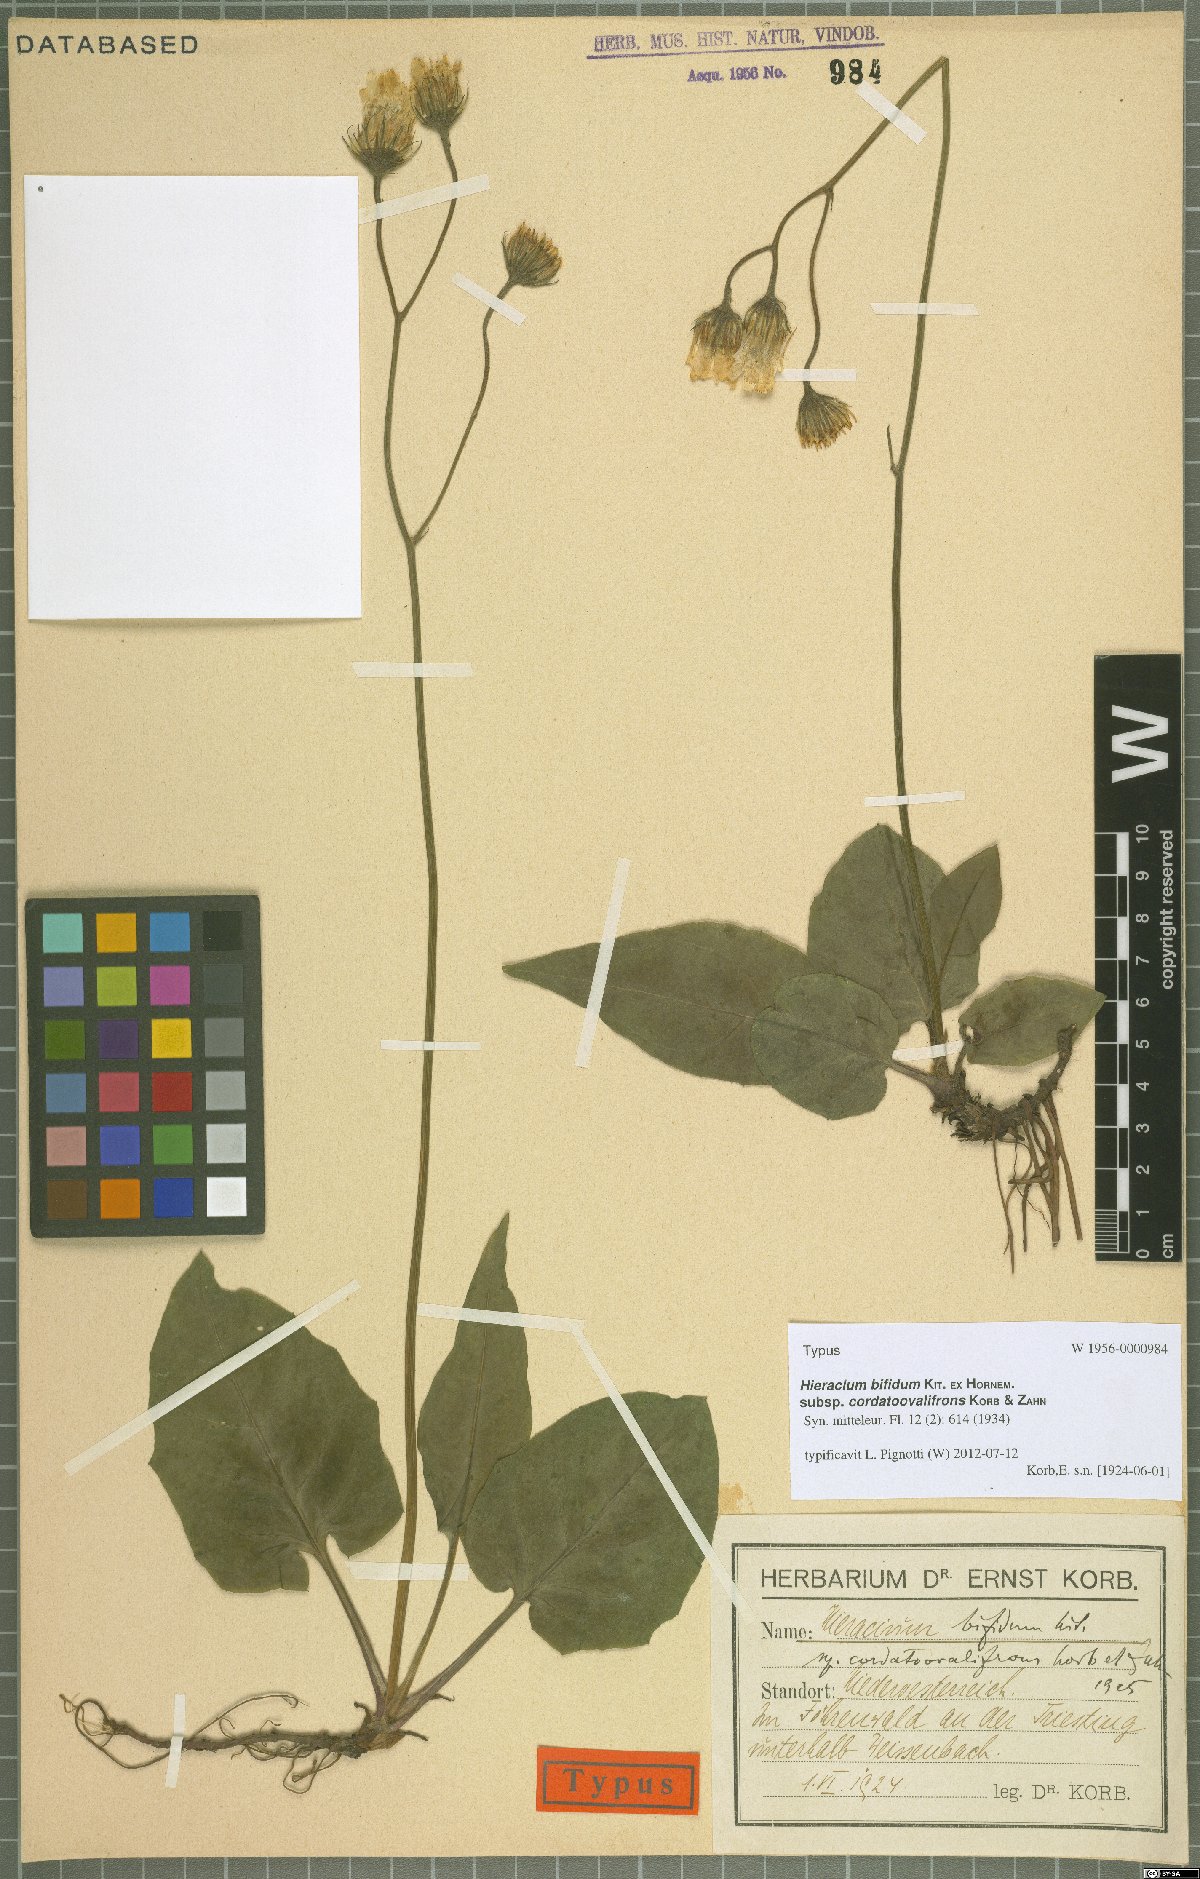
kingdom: Plantae
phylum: Tracheophyta
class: Magnoliopsida
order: Asterales
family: Asteraceae
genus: Hieracium
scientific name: Hieracium bifidum
